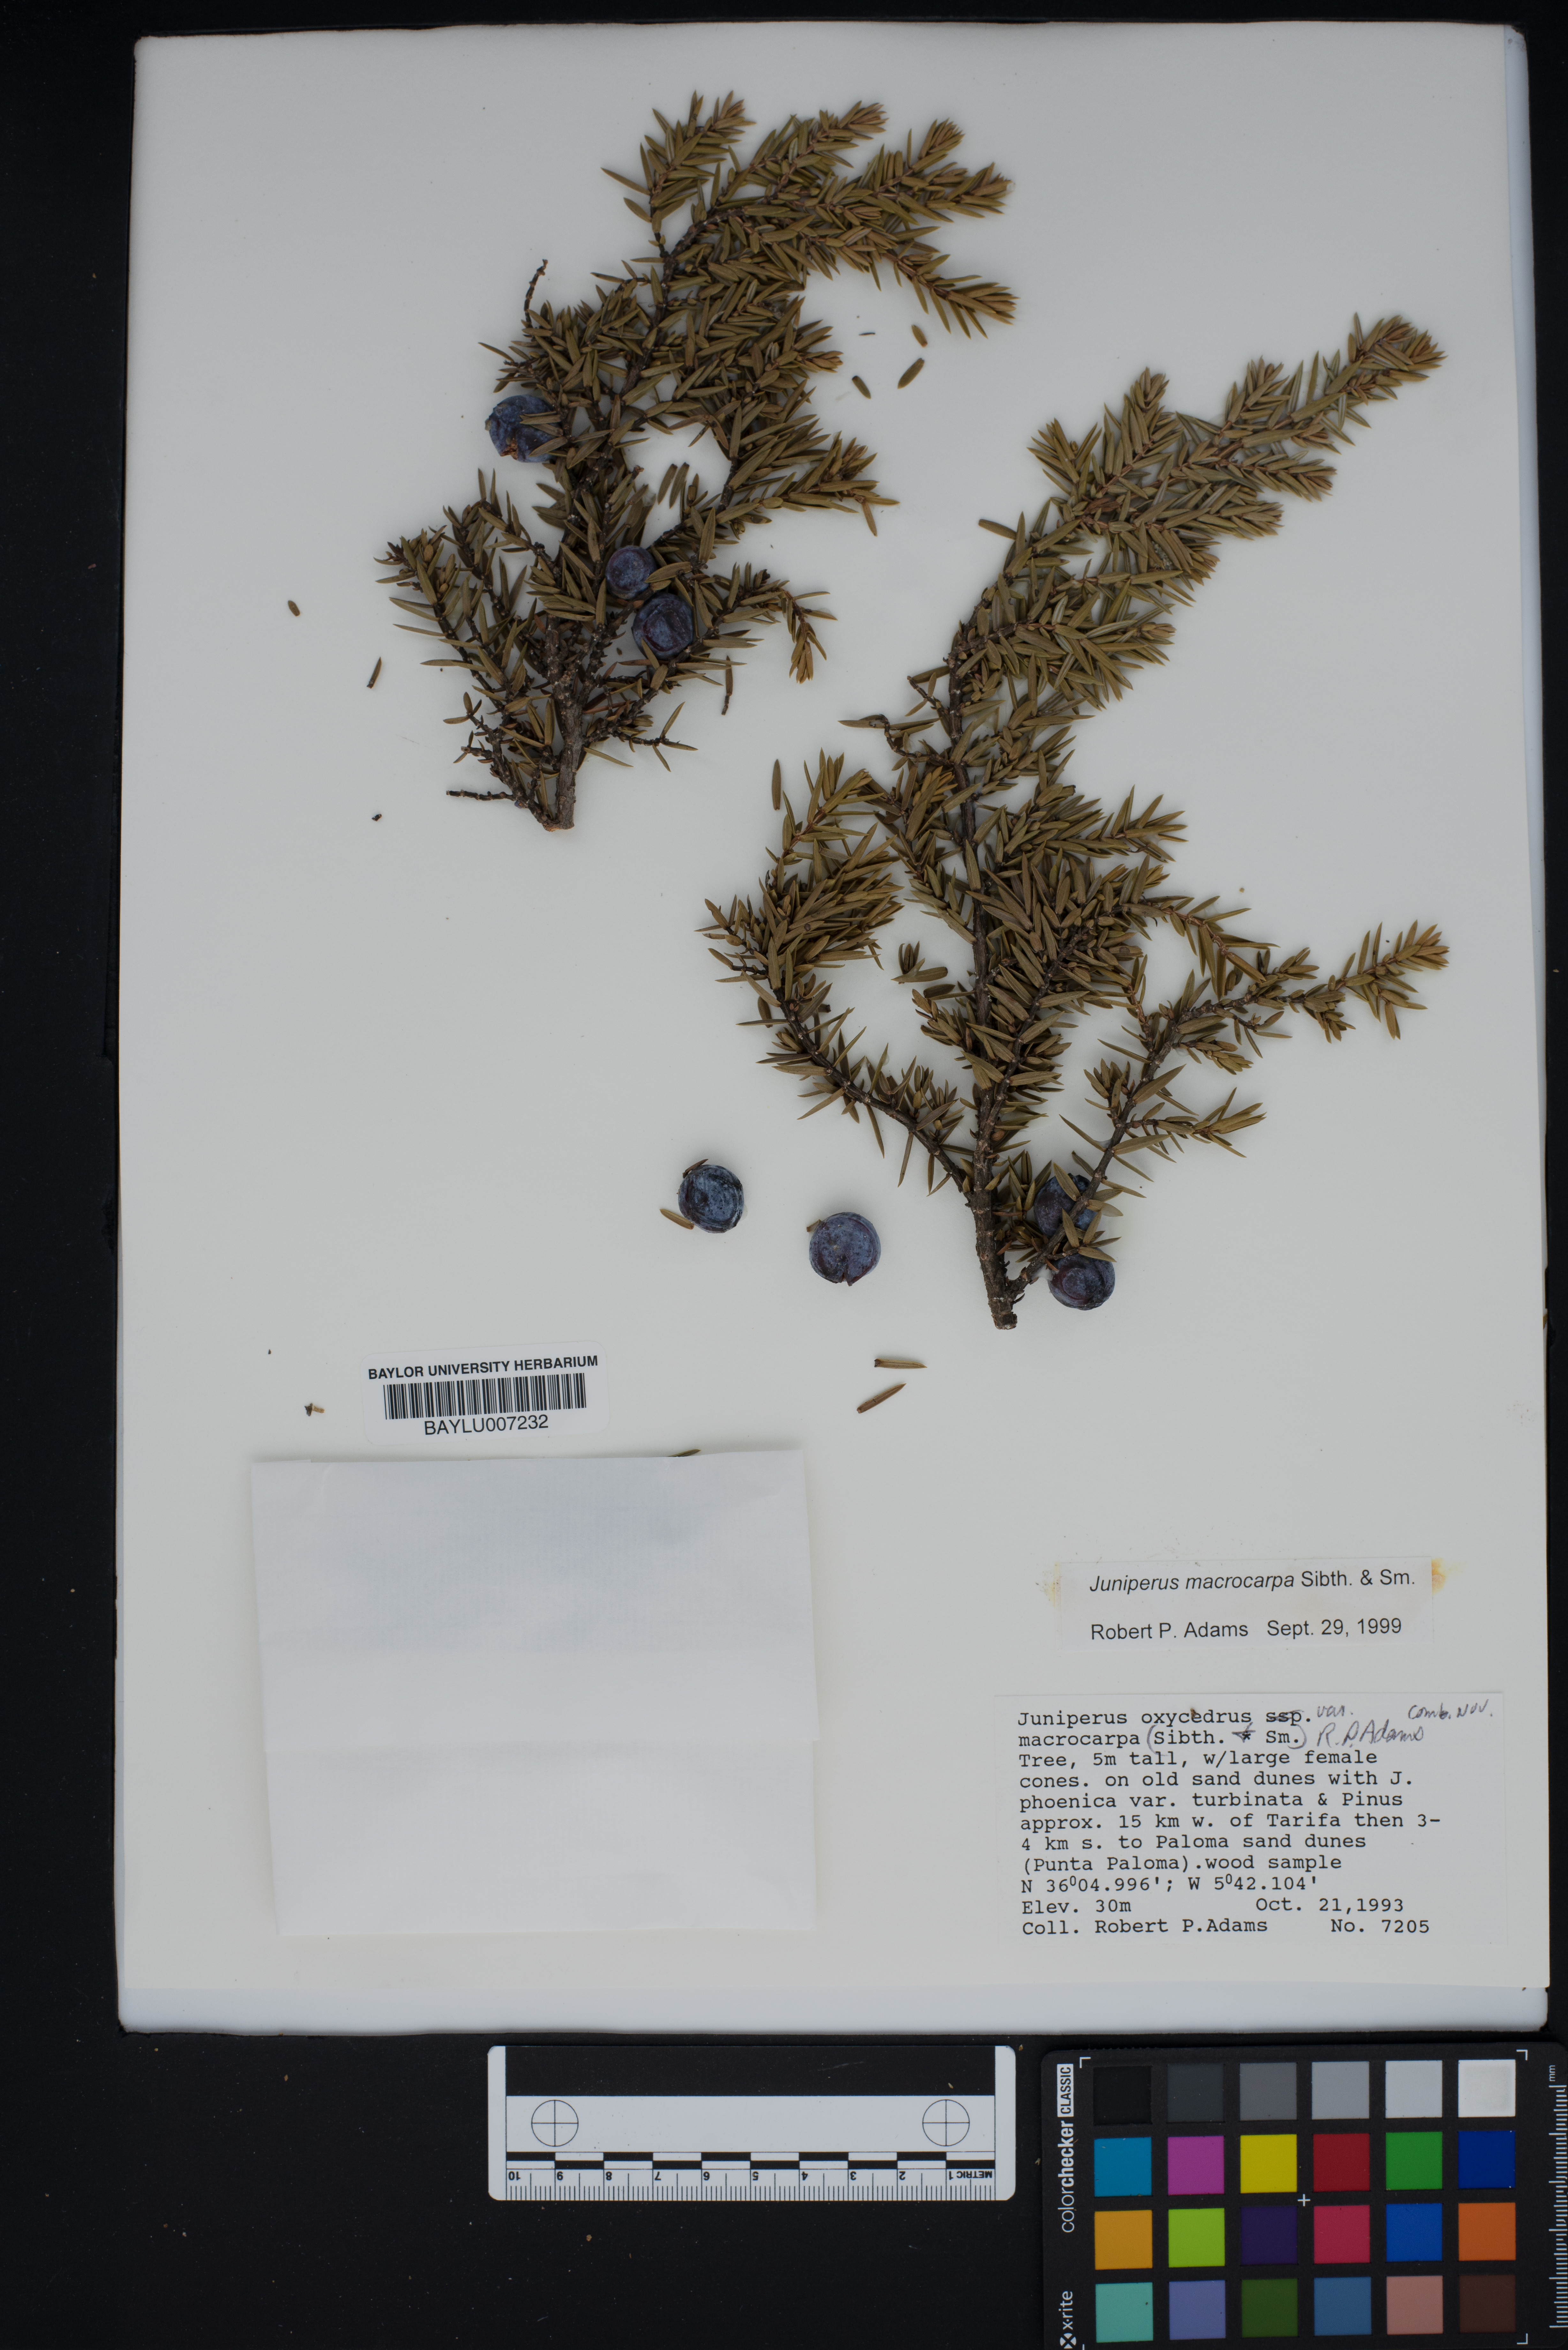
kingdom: Plantae
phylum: Tracheophyta
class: Pinopsida
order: Pinales
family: Cupressaceae
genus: Juniperus
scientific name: Juniperus oxycedrus
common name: Prickly juniper
